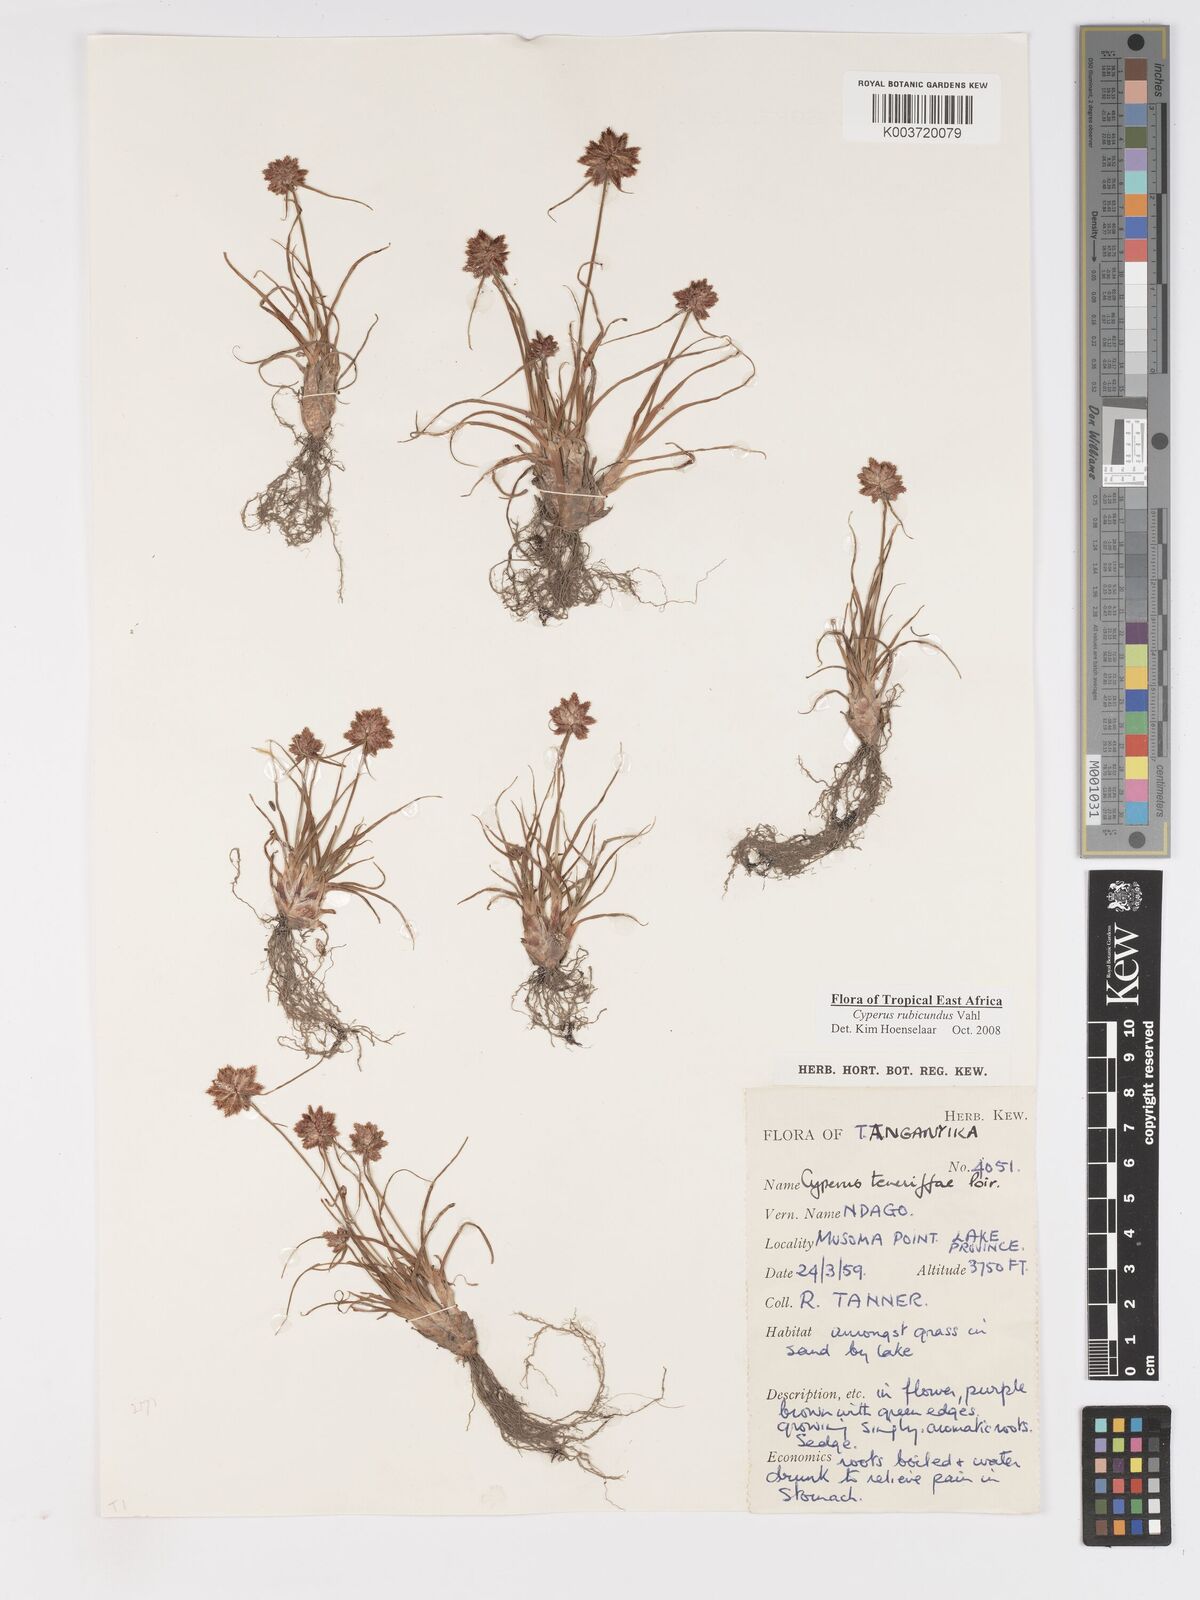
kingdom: Plantae
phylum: Tracheophyta
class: Liliopsida
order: Poales
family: Cyperaceae
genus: Cyperus
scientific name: Cyperus rubicundus
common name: Coco-grass
